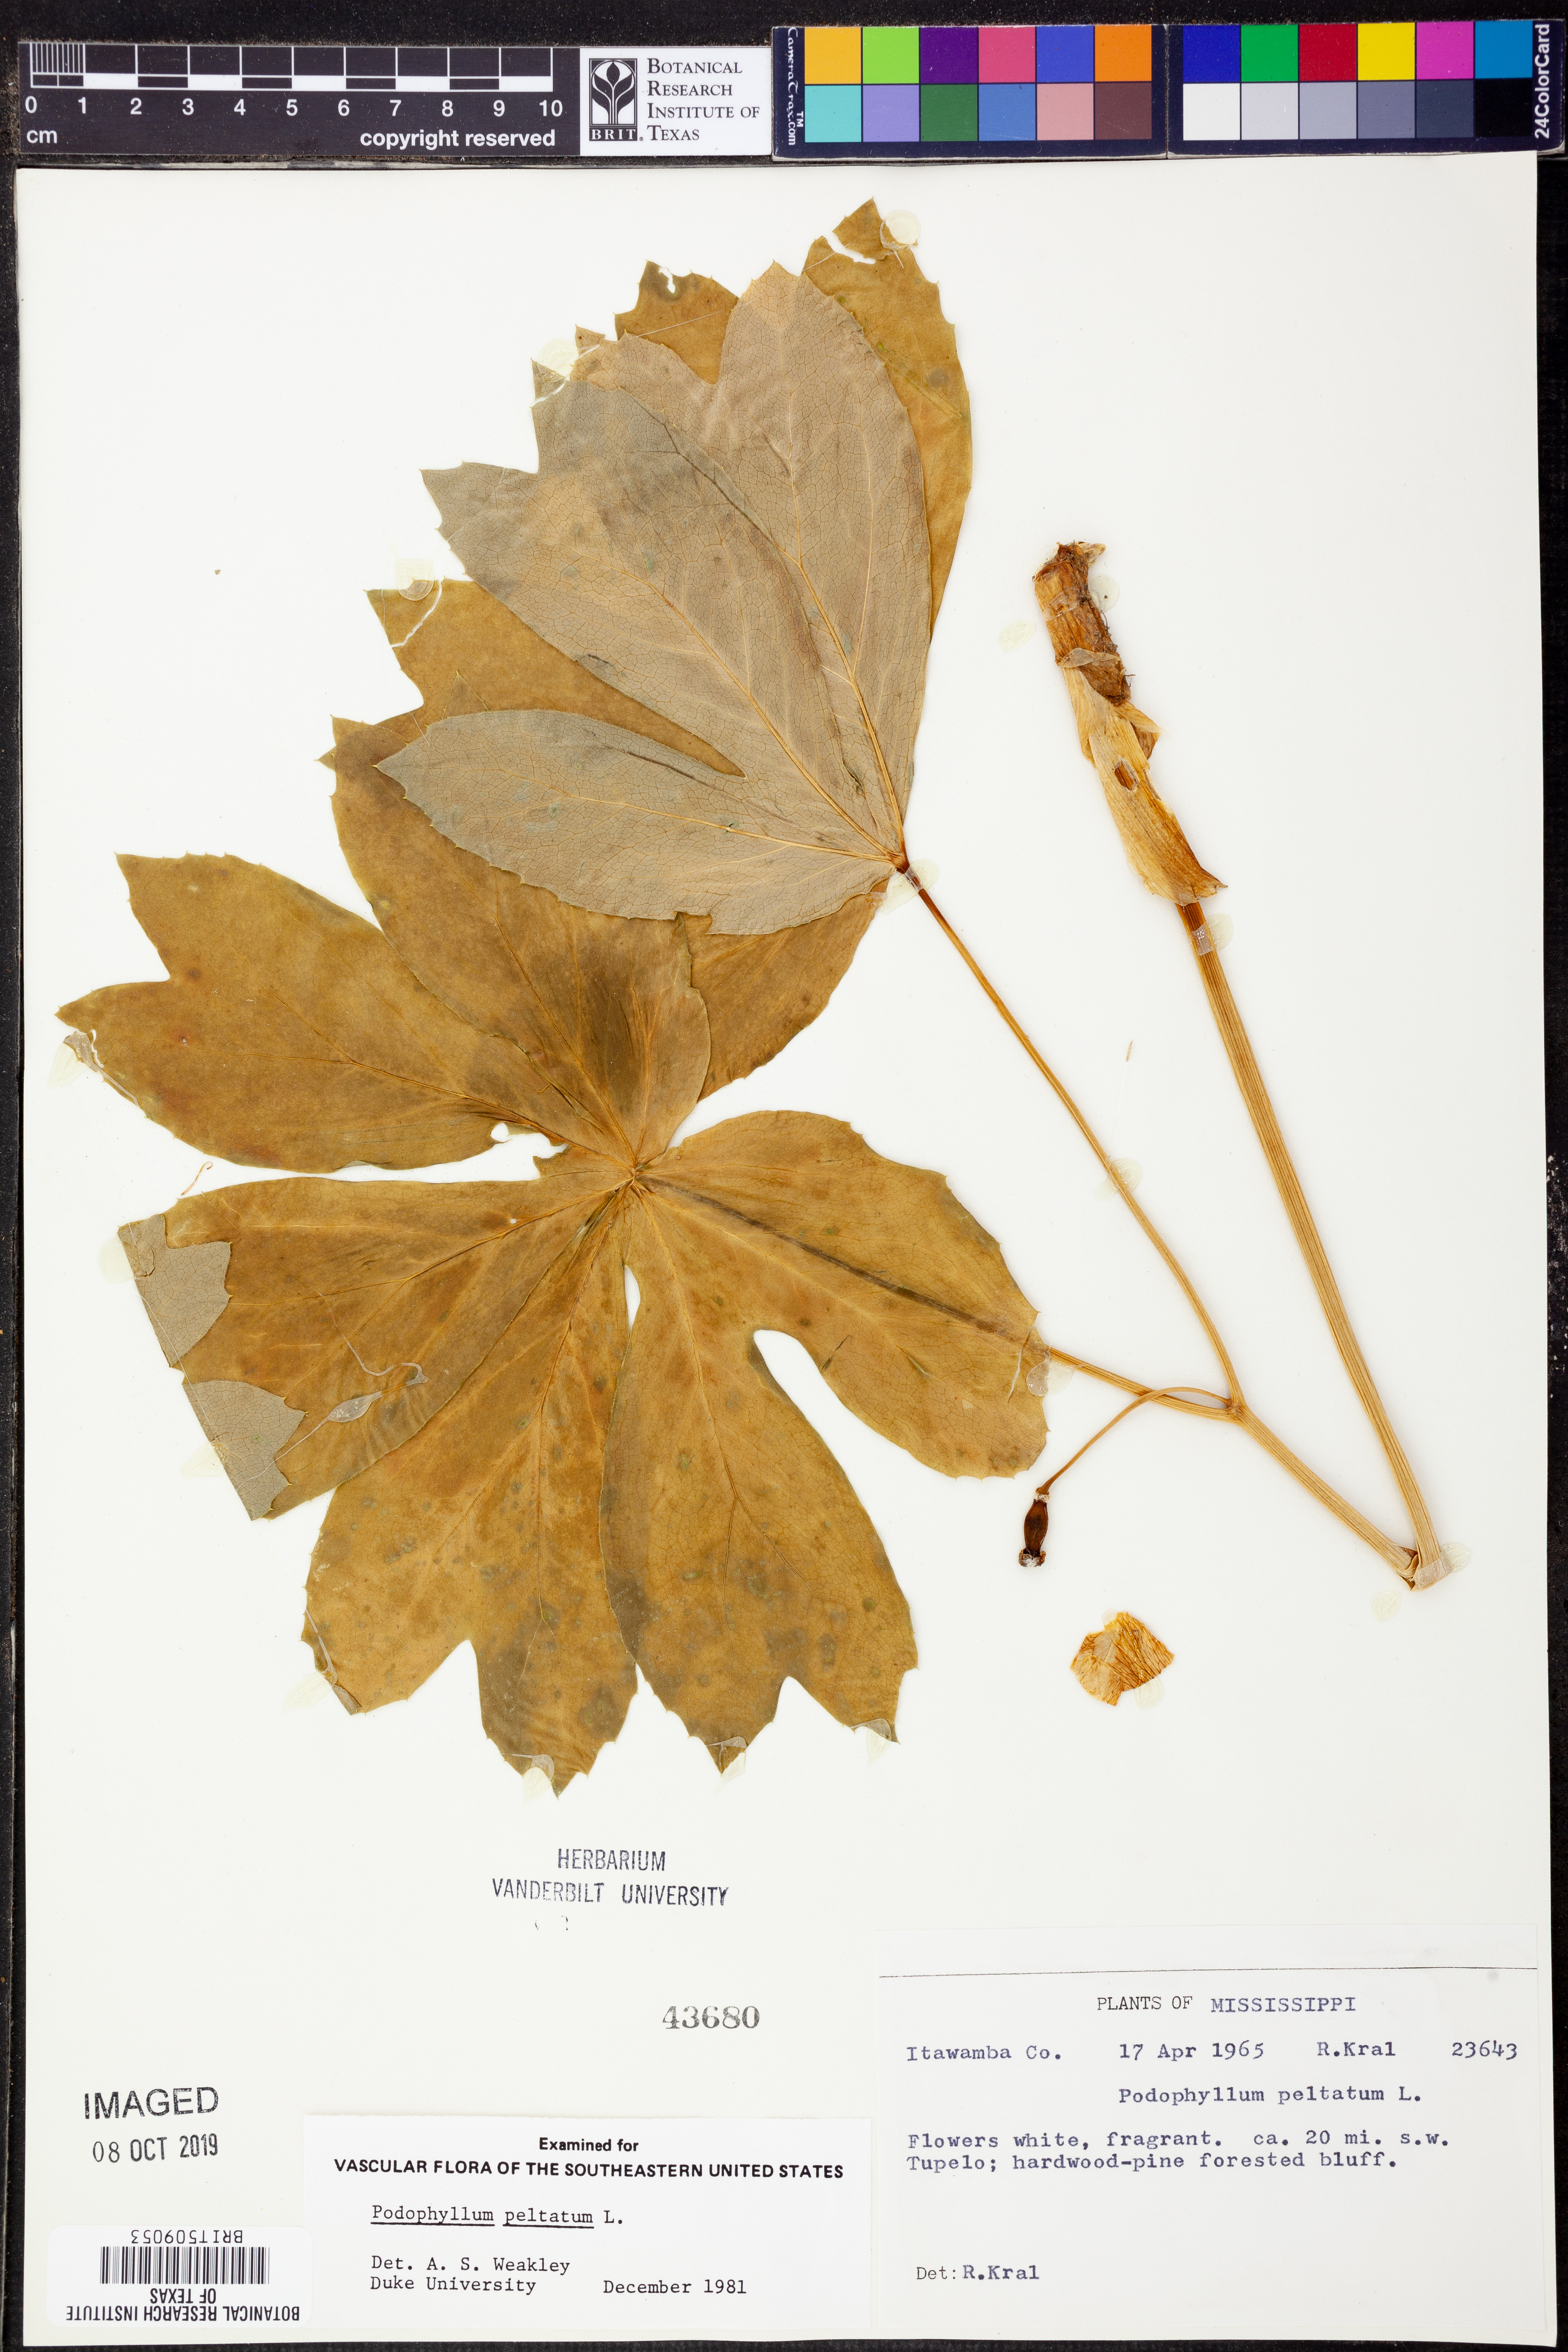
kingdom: Plantae
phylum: Tracheophyta
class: Magnoliopsida
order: Ranunculales
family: Berberidaceae
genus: Podophyllum
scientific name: Podophyllum peltatum
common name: Wild mandrake
